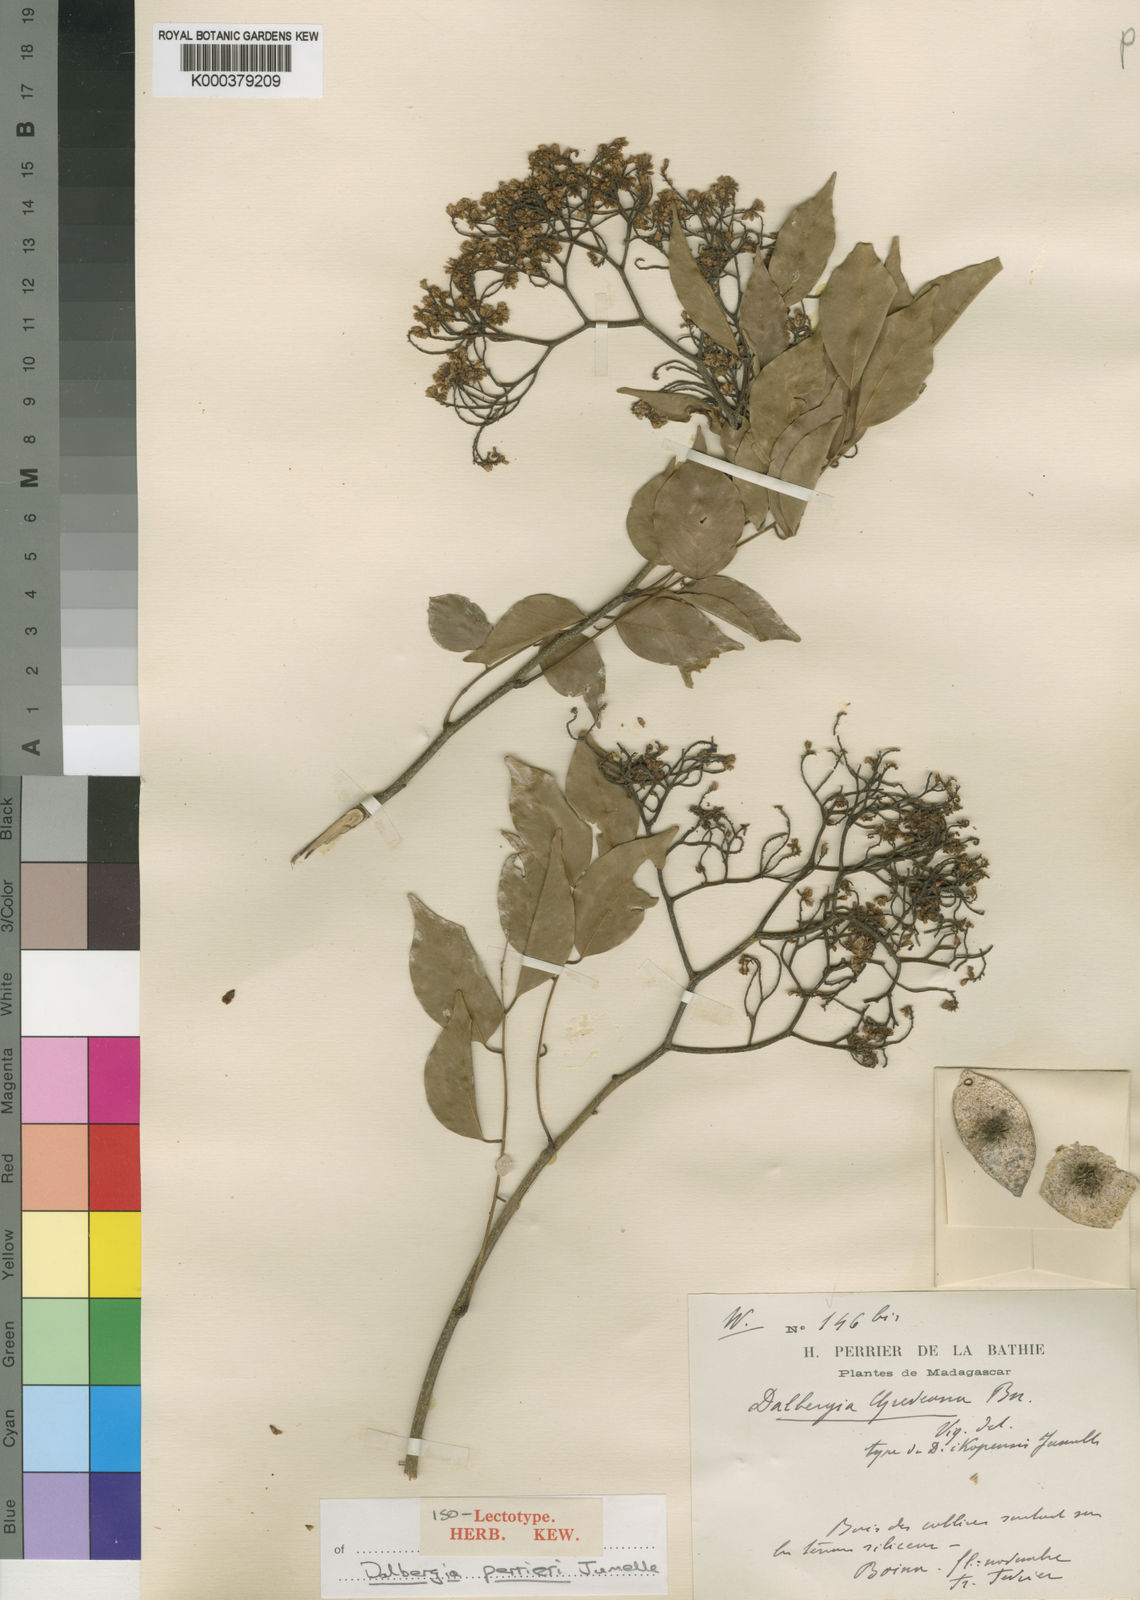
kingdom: Plantae
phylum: Tracheophyta
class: Magnoliopsida
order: Fabales
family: Fabaceae
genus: Dalbergia
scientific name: Dalbergia greveana
